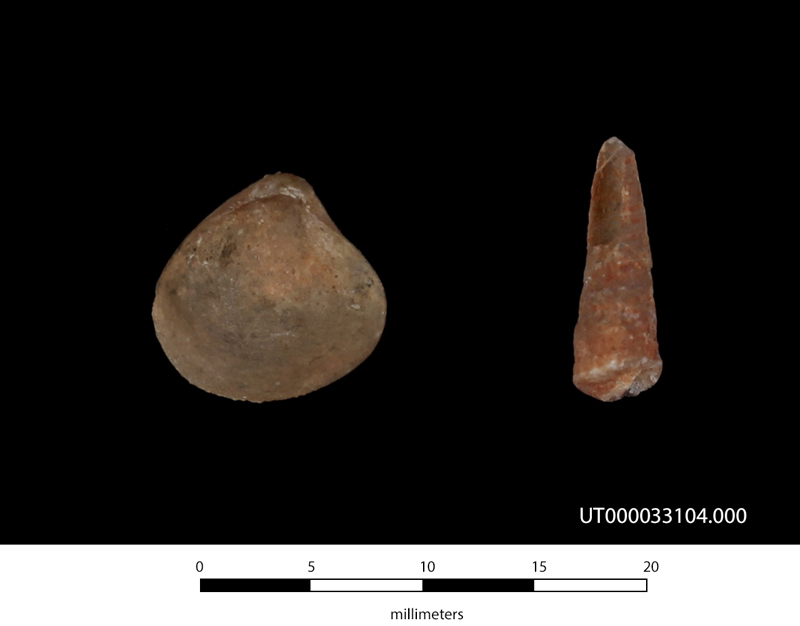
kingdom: Animalia
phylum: Mollusca
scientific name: Mollusca
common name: Mollusca
